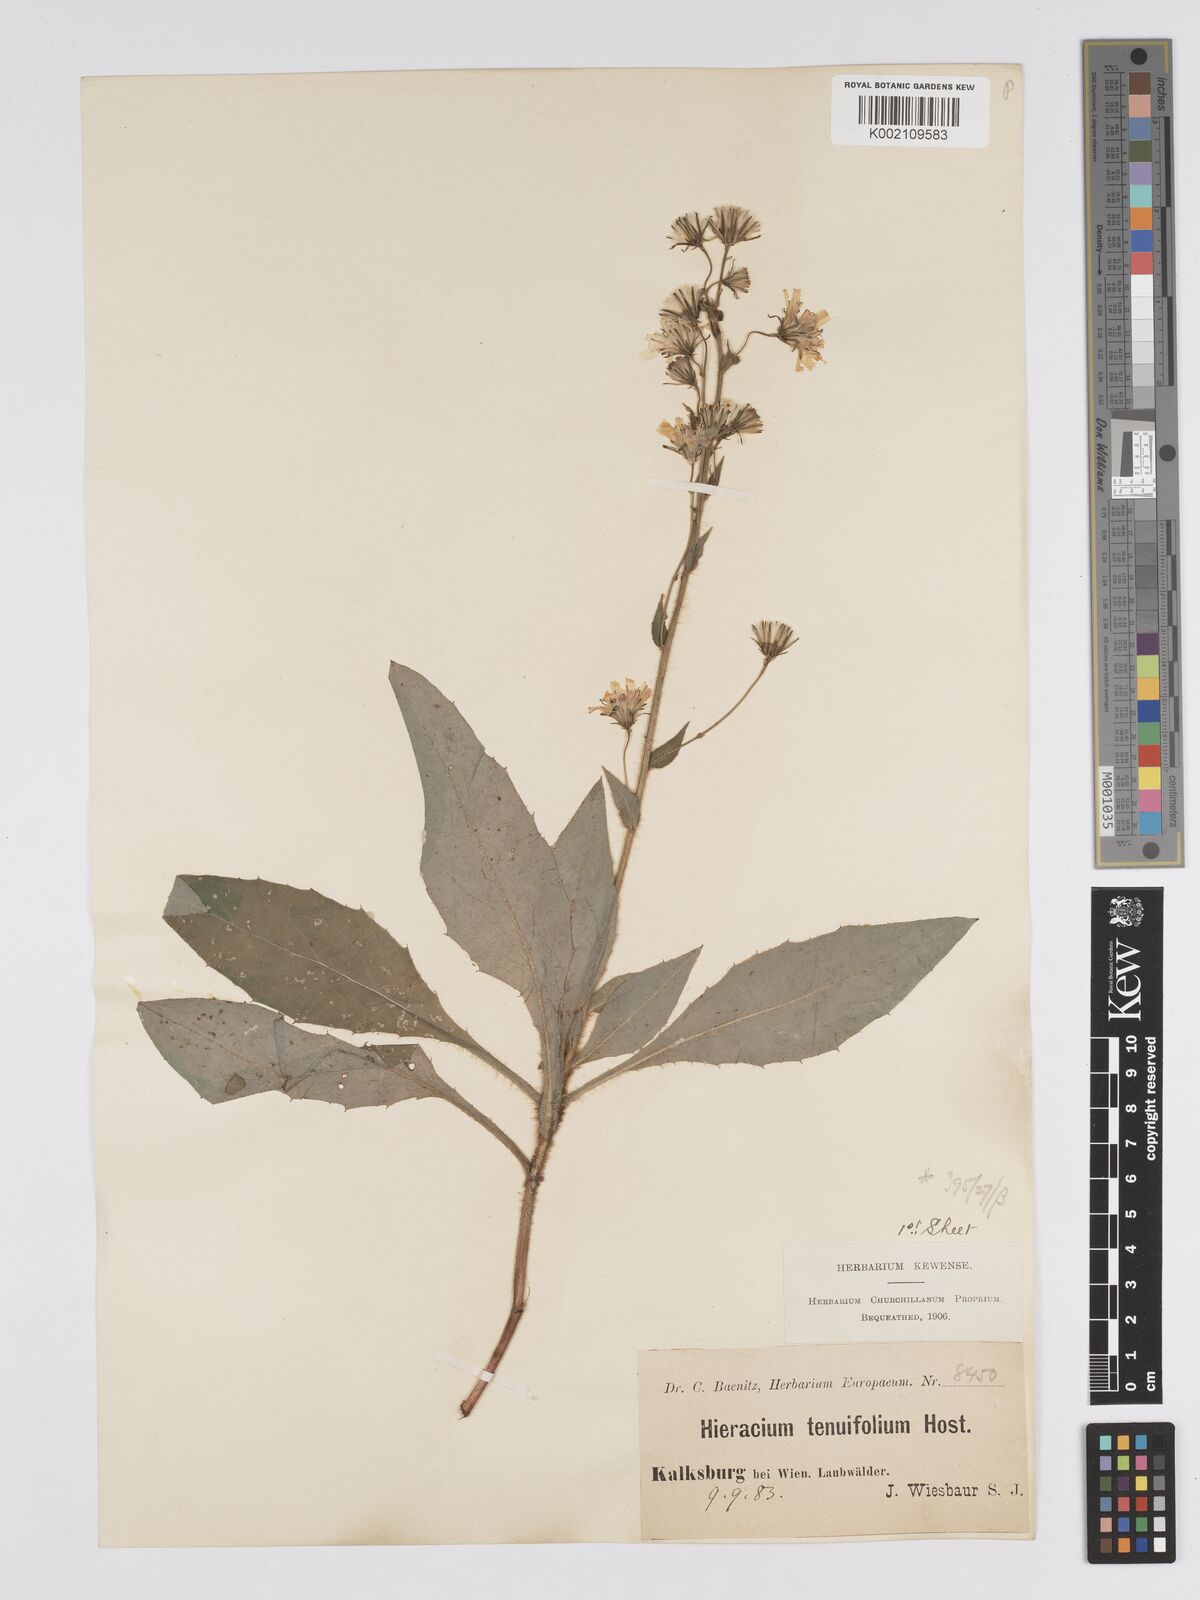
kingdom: Plantae
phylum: Tracheophyta
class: Magnoliopsida
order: Asterales
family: Asteraceae
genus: Hieracium
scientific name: Hieracium racemosum
